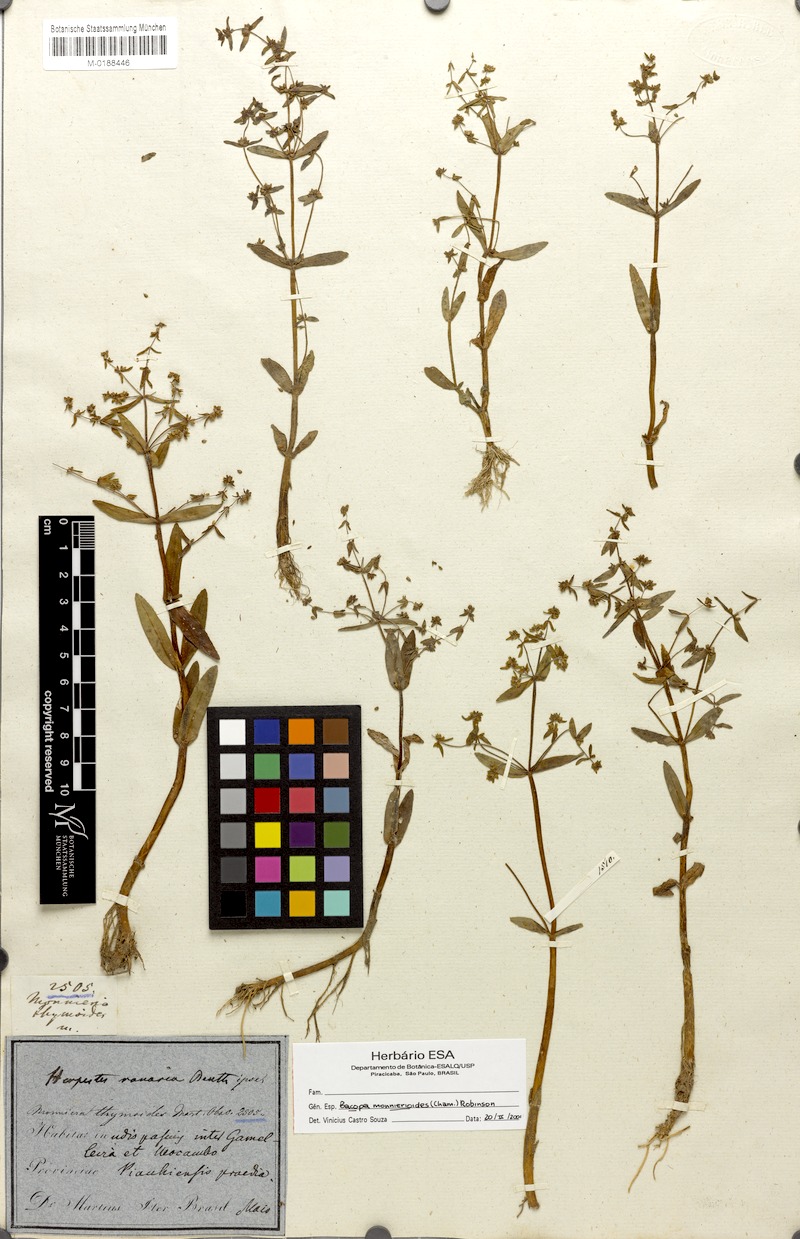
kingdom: Plantae
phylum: Tracheophyta
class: Magnoliopsida
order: Lamiales
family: Plantaginaceae
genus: Bacopa
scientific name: Bacopa monnierioides
